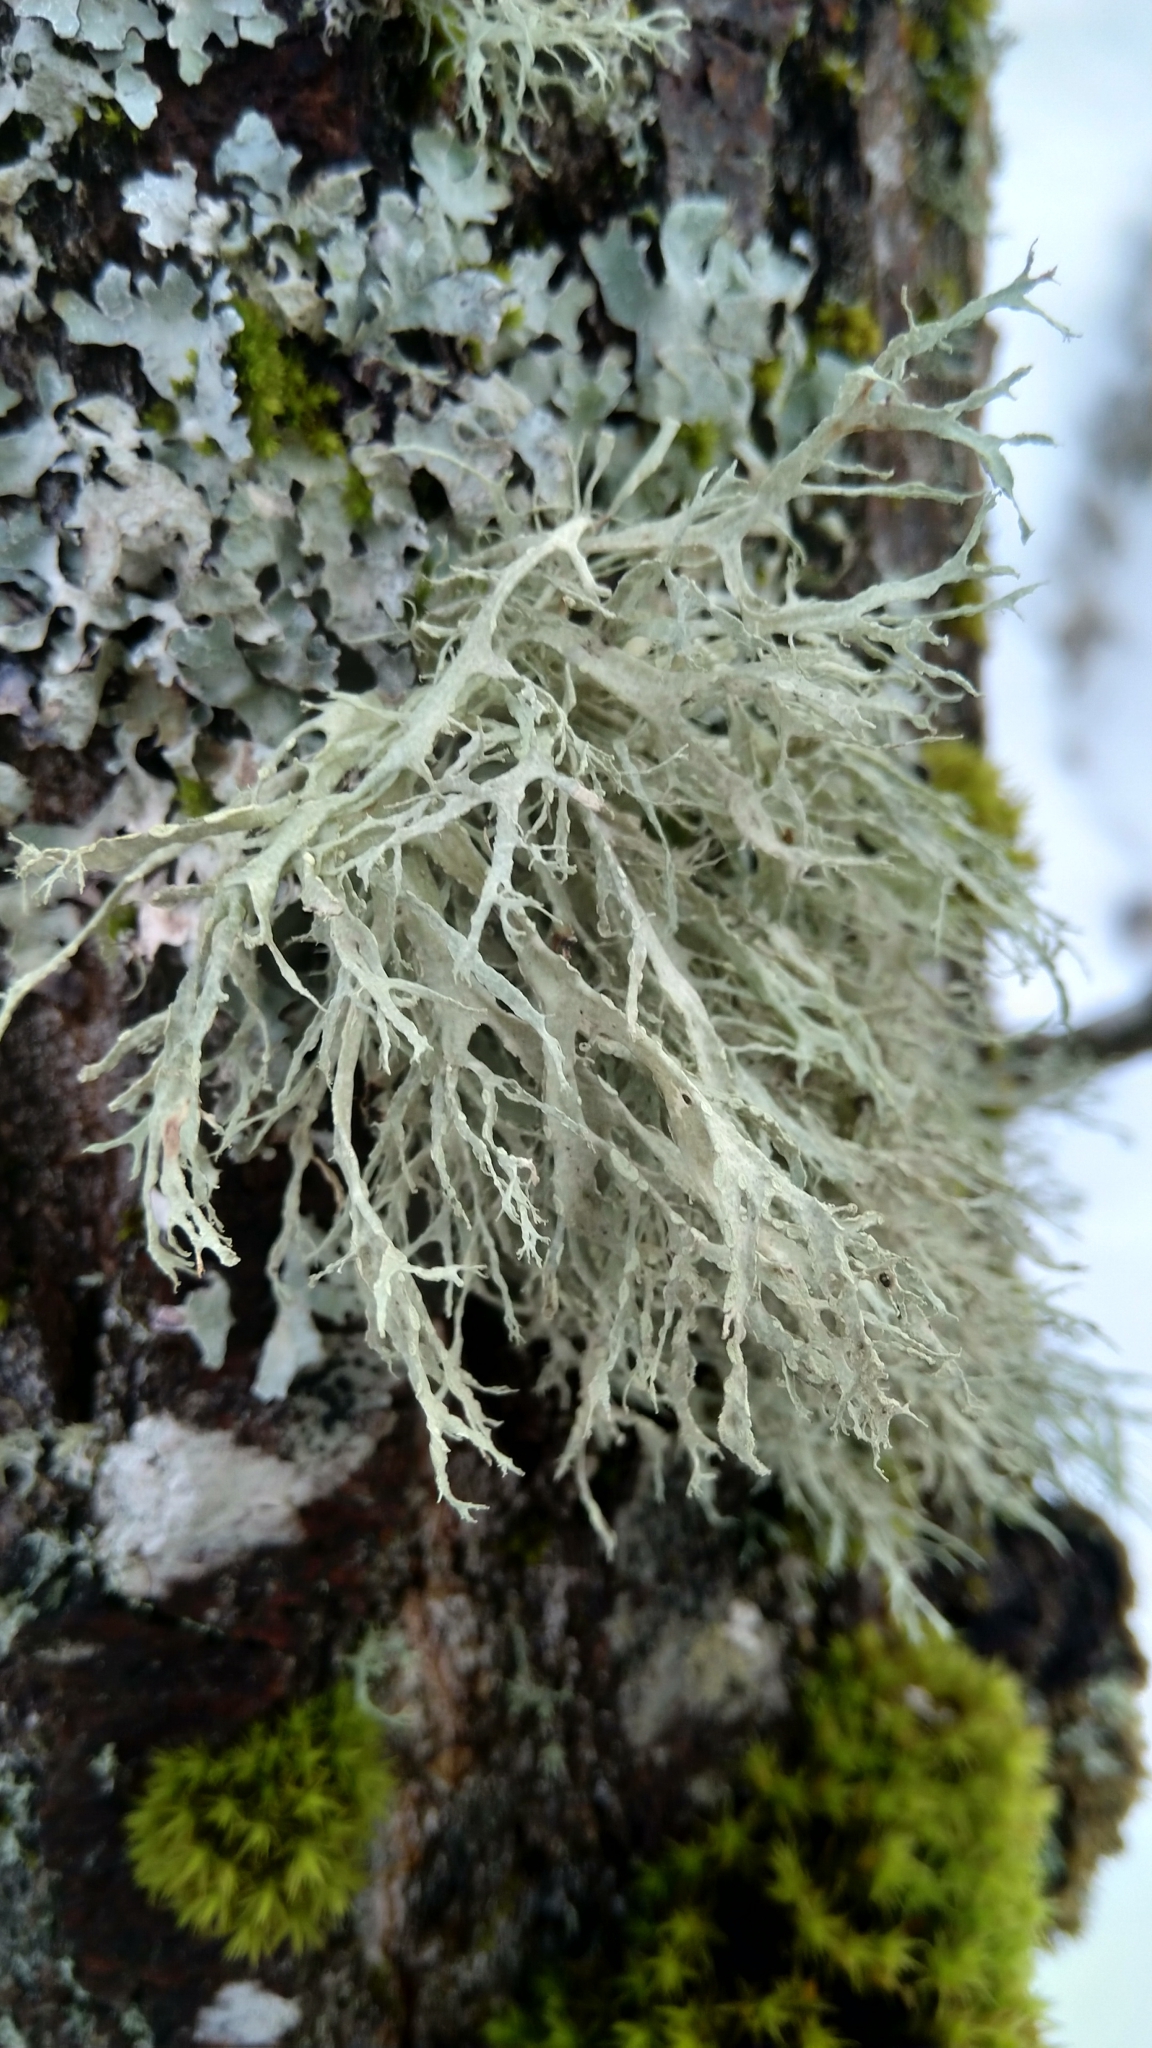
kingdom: Fungi
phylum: Ascomycota
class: Lecanoromycetes
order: Lecanorales
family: Ramalinaceae
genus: Ramalina
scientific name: Ramalina farinacea
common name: Farinose cartilage lichen
